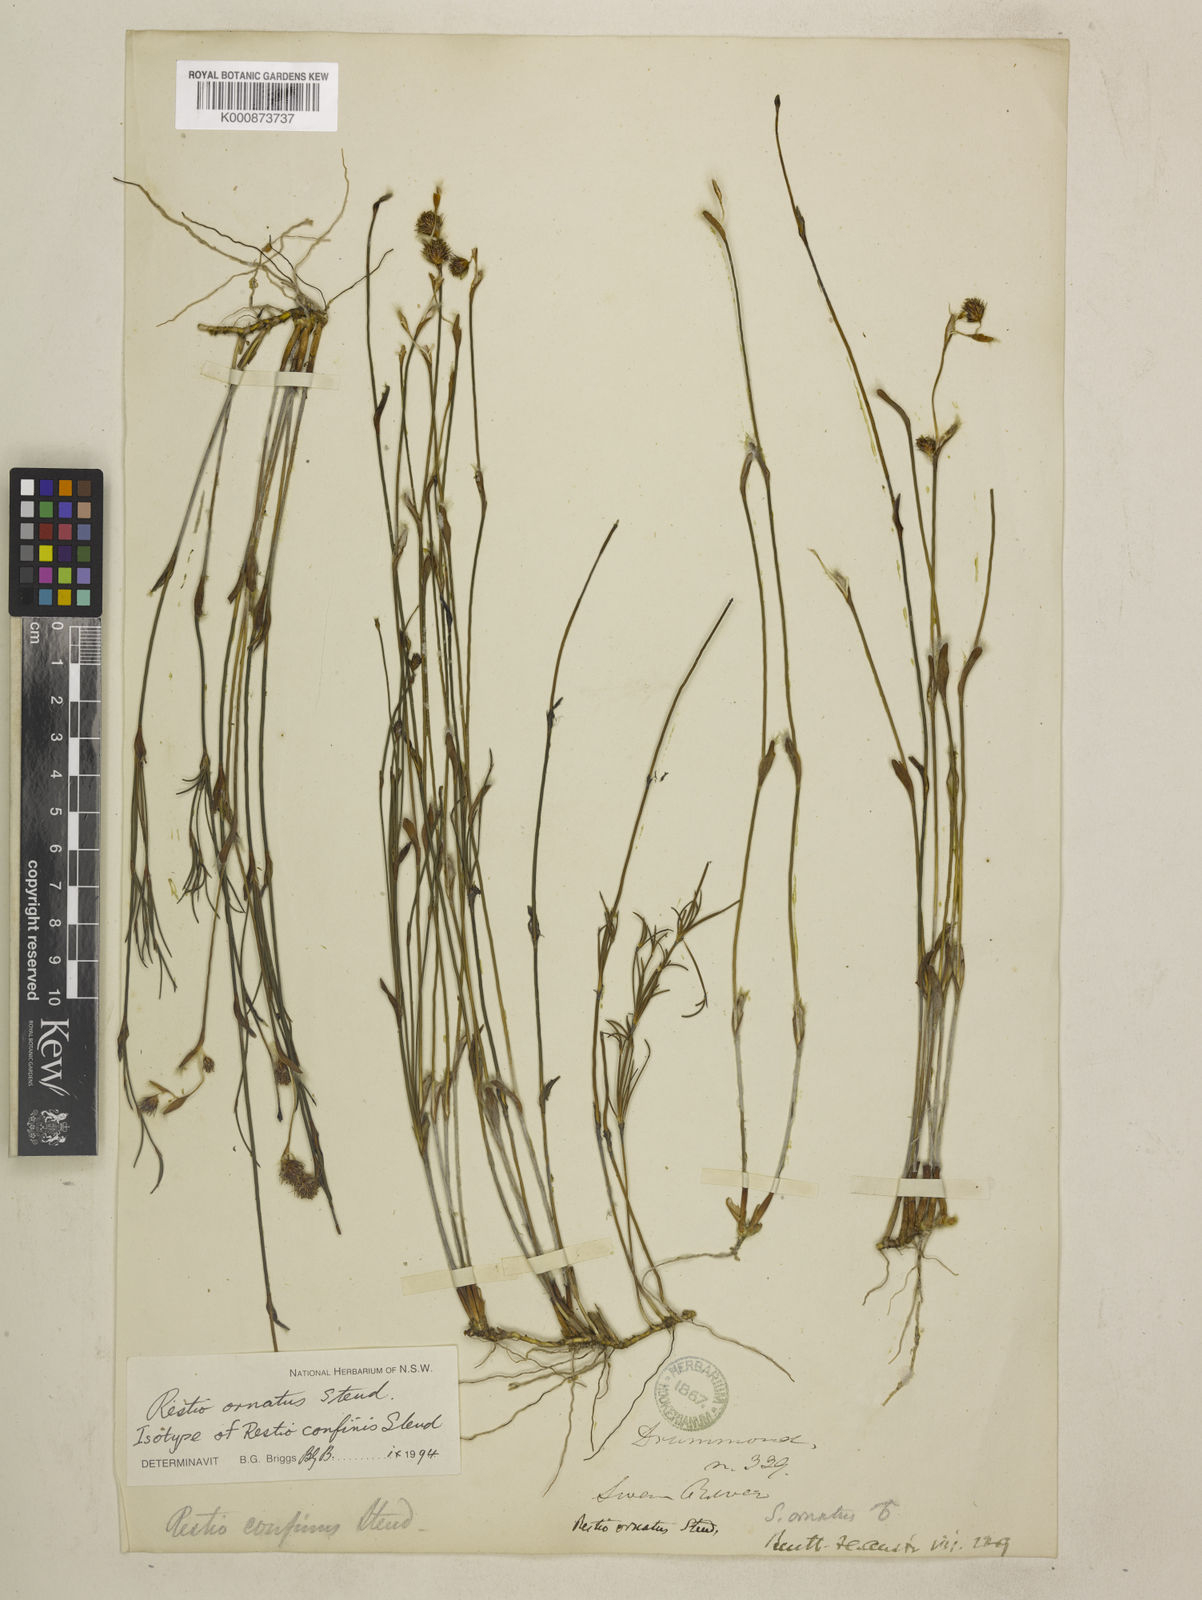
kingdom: Plantae
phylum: Tracheophyta
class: Liliopsida
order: Poales
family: Restionaceae
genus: Chordifex
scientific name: Chordifex ornatus
